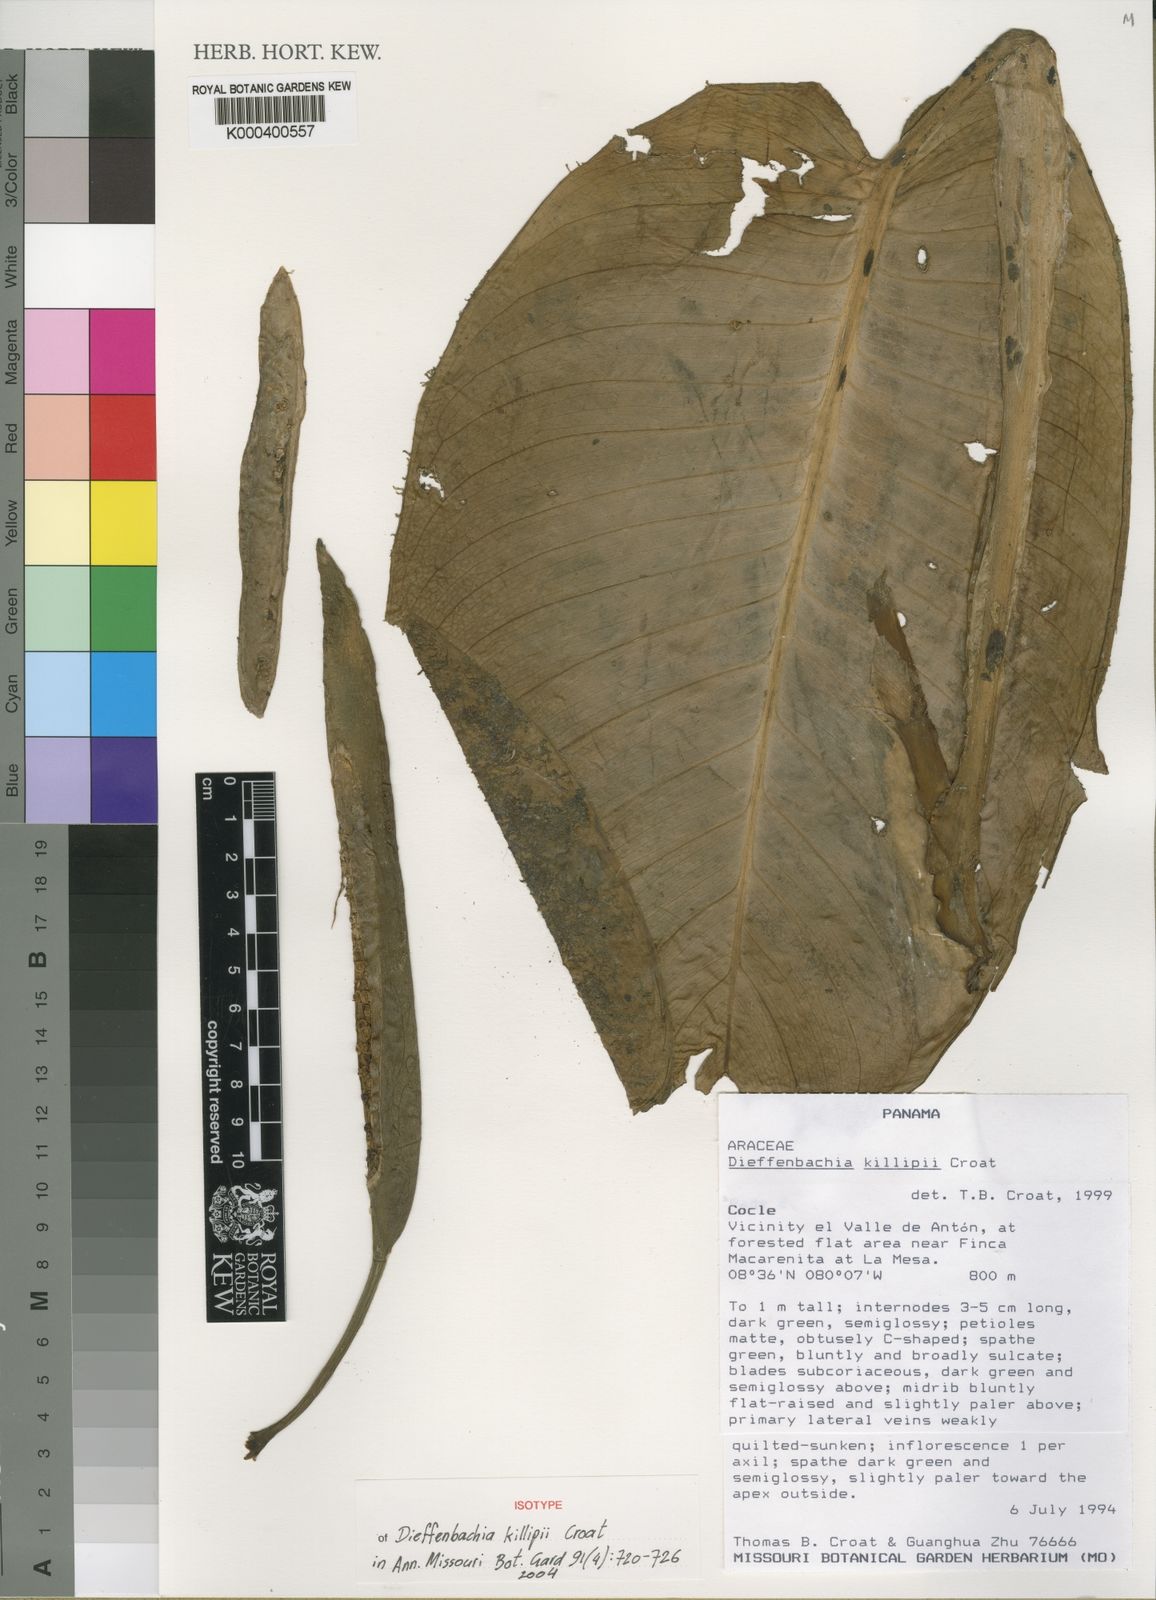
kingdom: Plantae
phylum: Tracheophyta
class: Liliopsida
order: Alismatales
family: Araceae
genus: Dieffenbachia
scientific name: Dieffenbachia killipii
